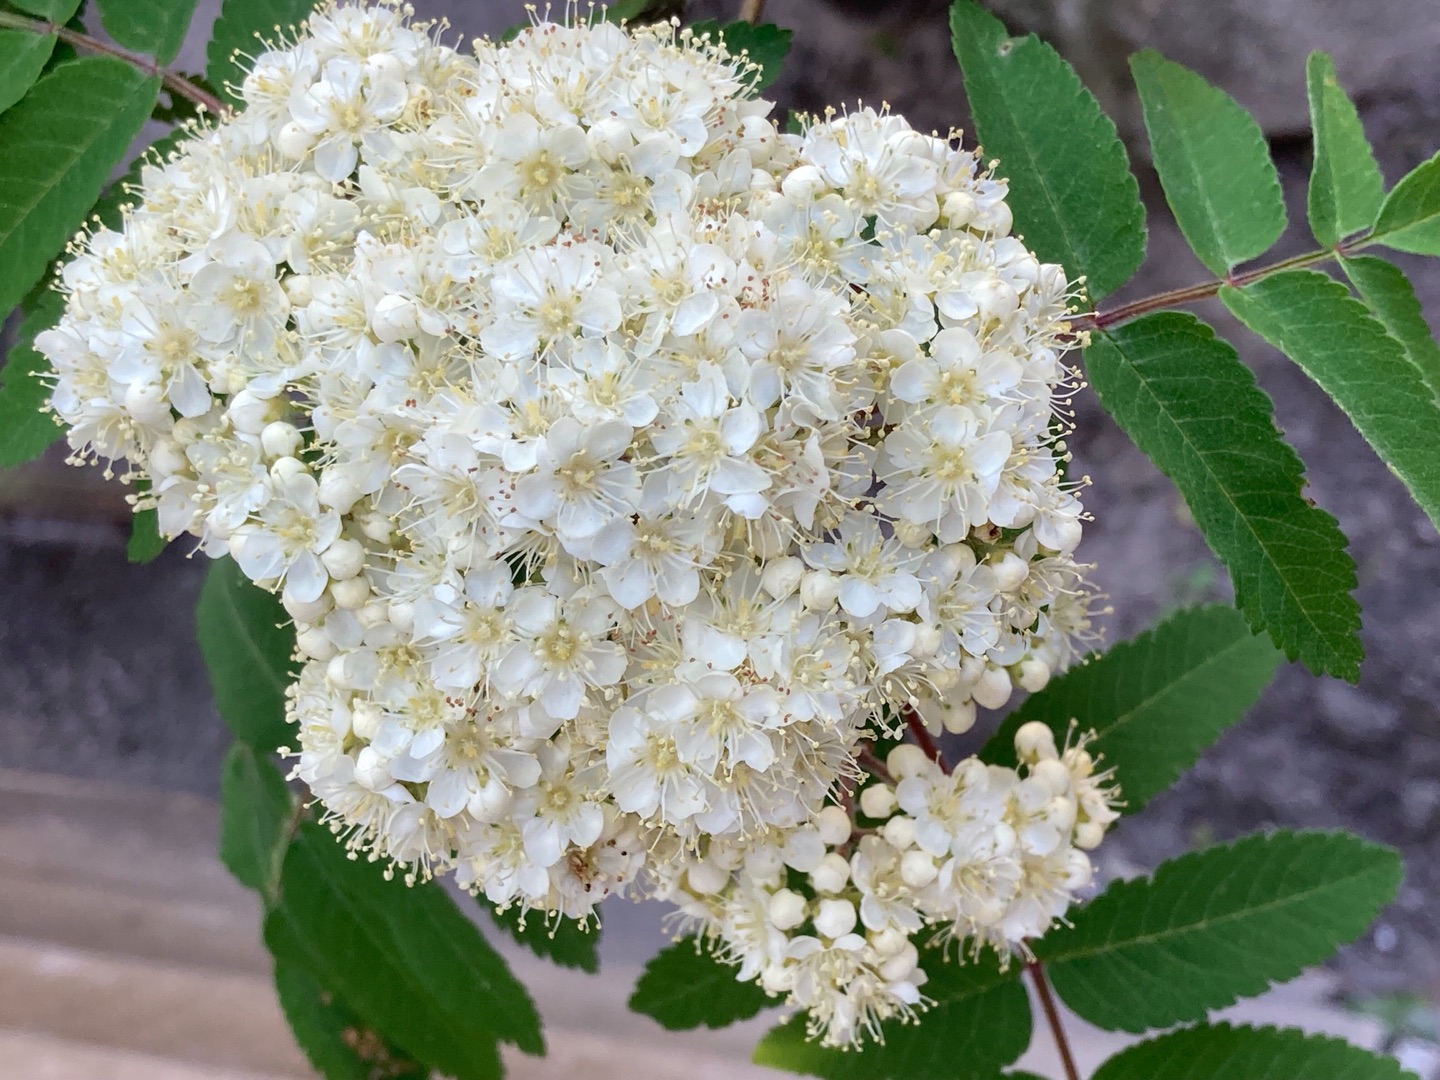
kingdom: Plantae
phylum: Tracheophyta
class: Magnoliopsida
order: Rosales
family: Rosaceae
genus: Sorbus
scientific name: Sorbus aucuparia
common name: Almindelig røn
